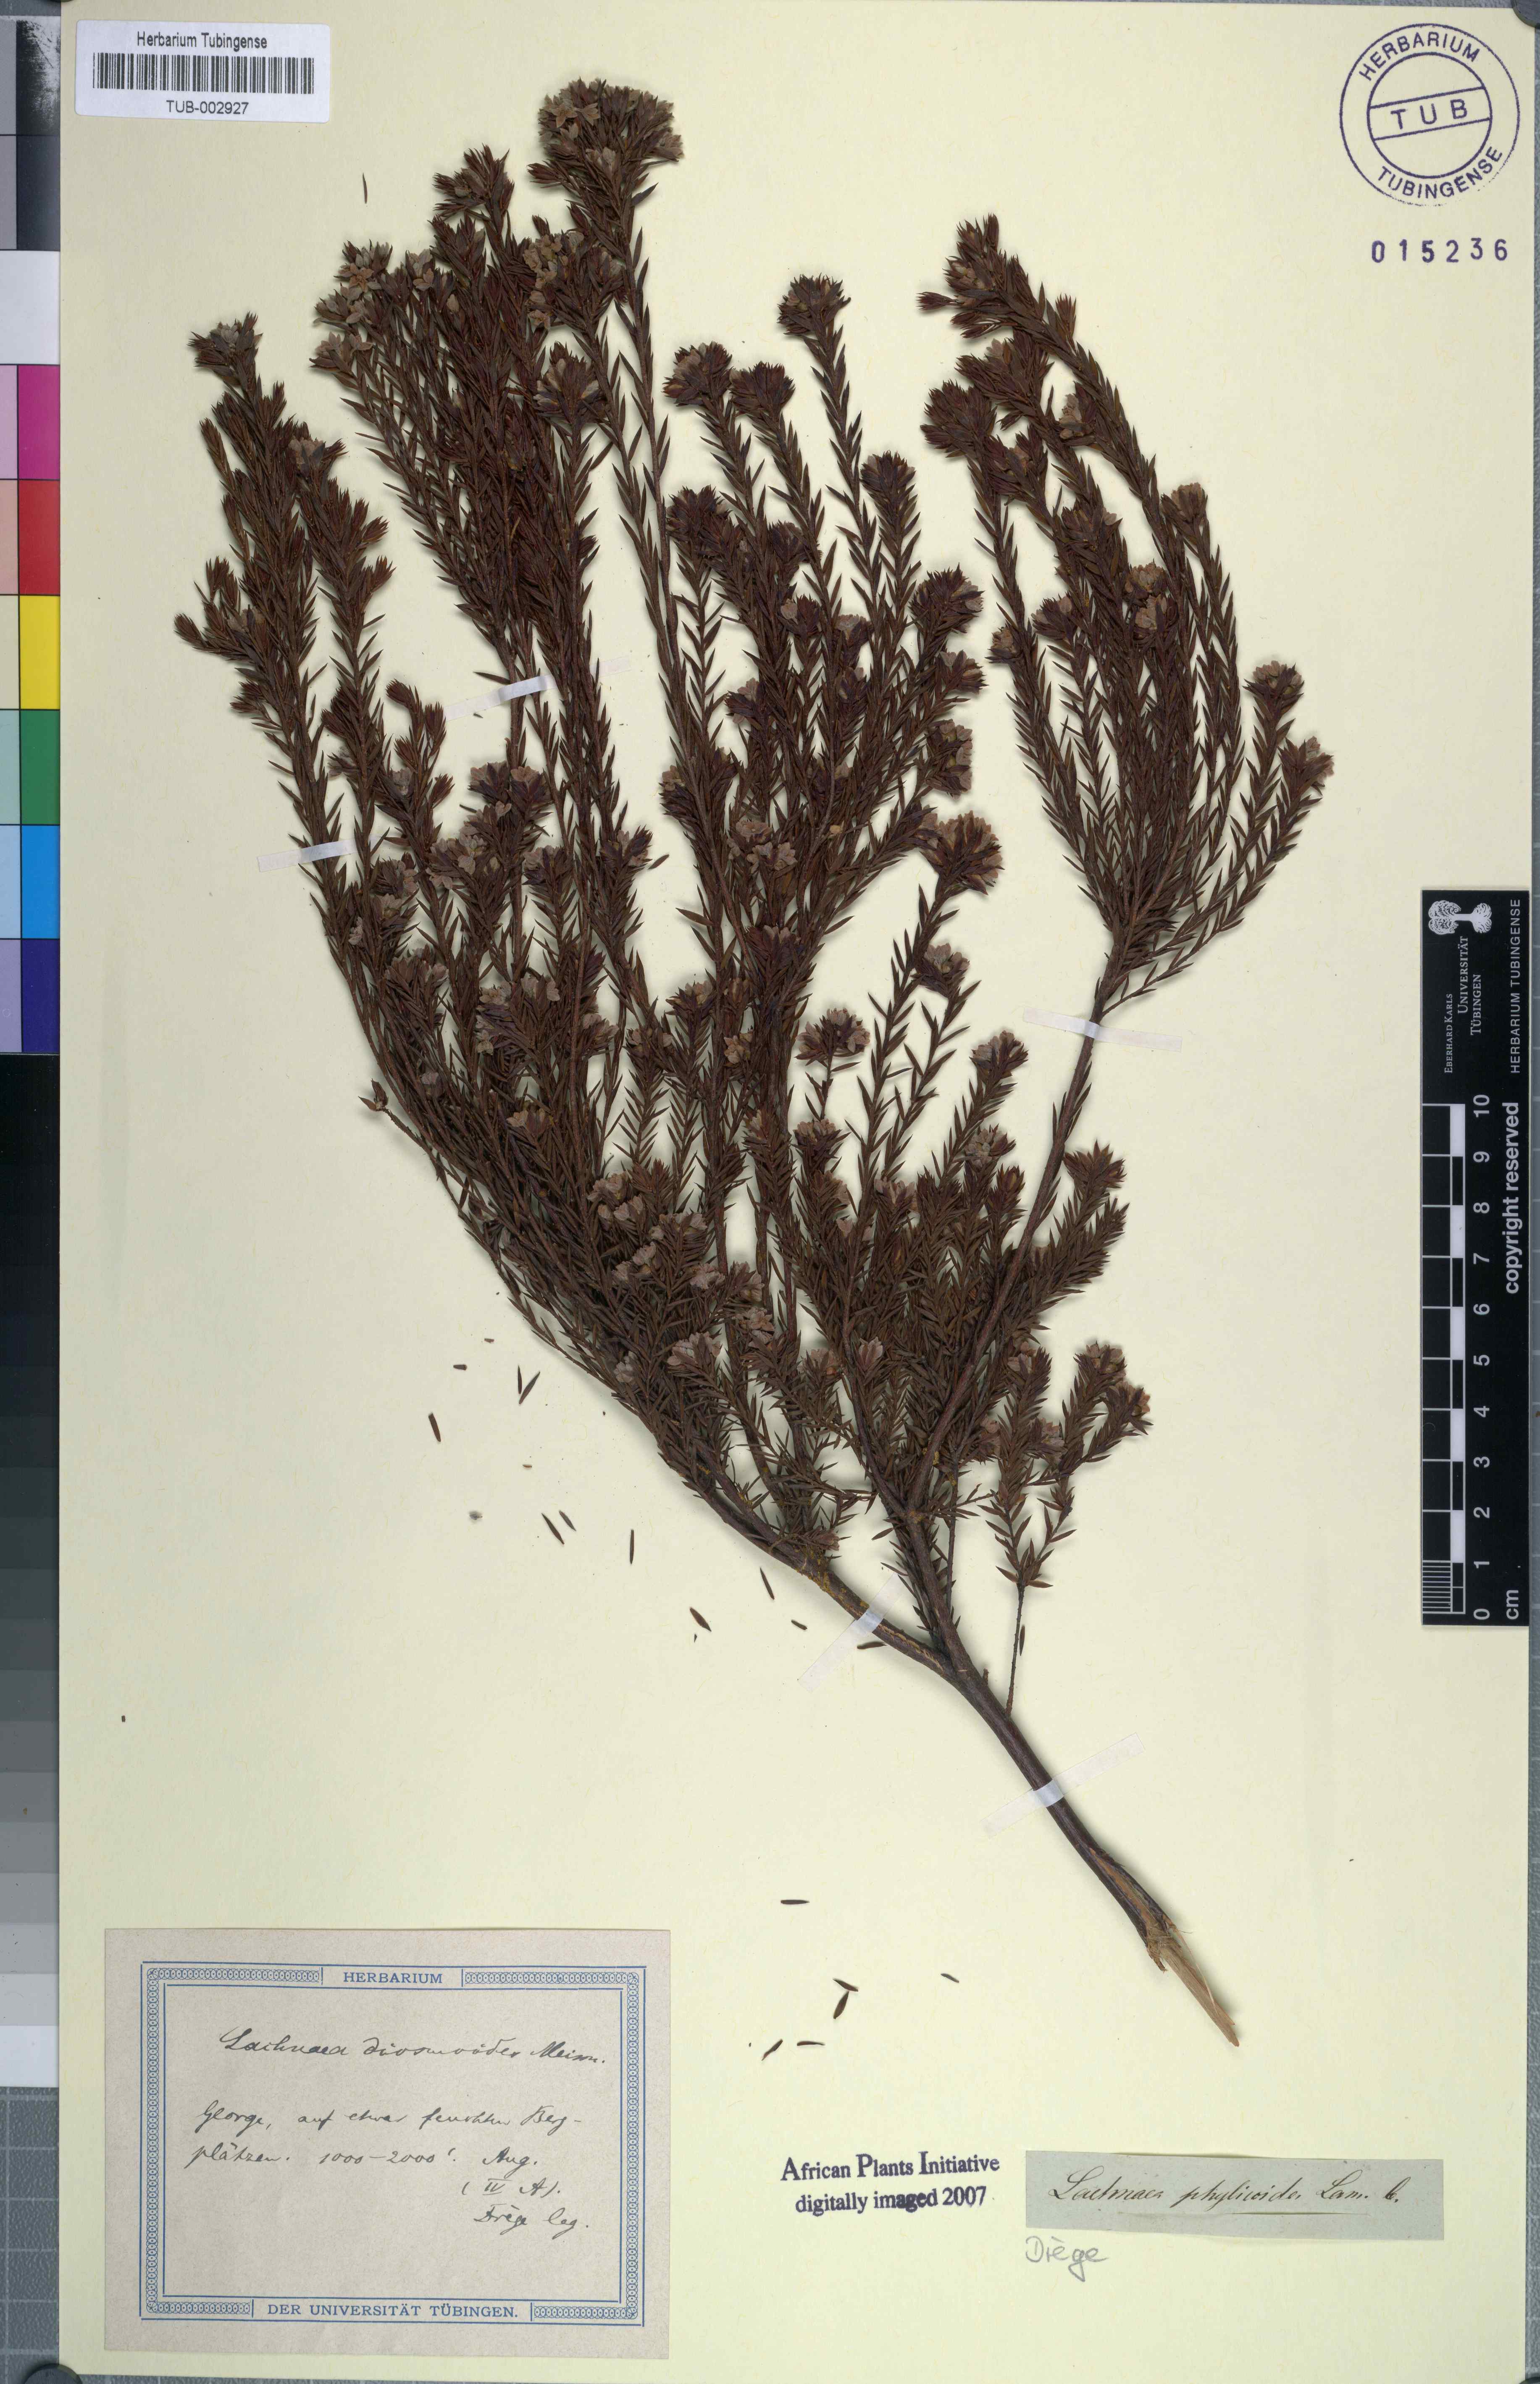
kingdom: Plantae
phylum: Tracheophyta
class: Magnoliopsida
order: Malvales
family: Thymelaeaceae
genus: Passerina
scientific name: Passerina ericoides
